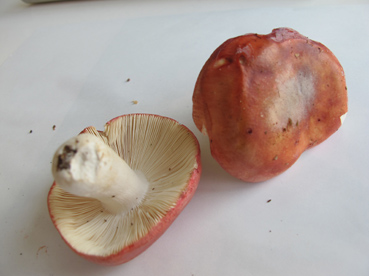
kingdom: Fungi
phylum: Basidiomycota
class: Agaricomycetes
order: Russulales
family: Russulaceae
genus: Russula
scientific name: Russula aurora
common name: rosa skørhat
